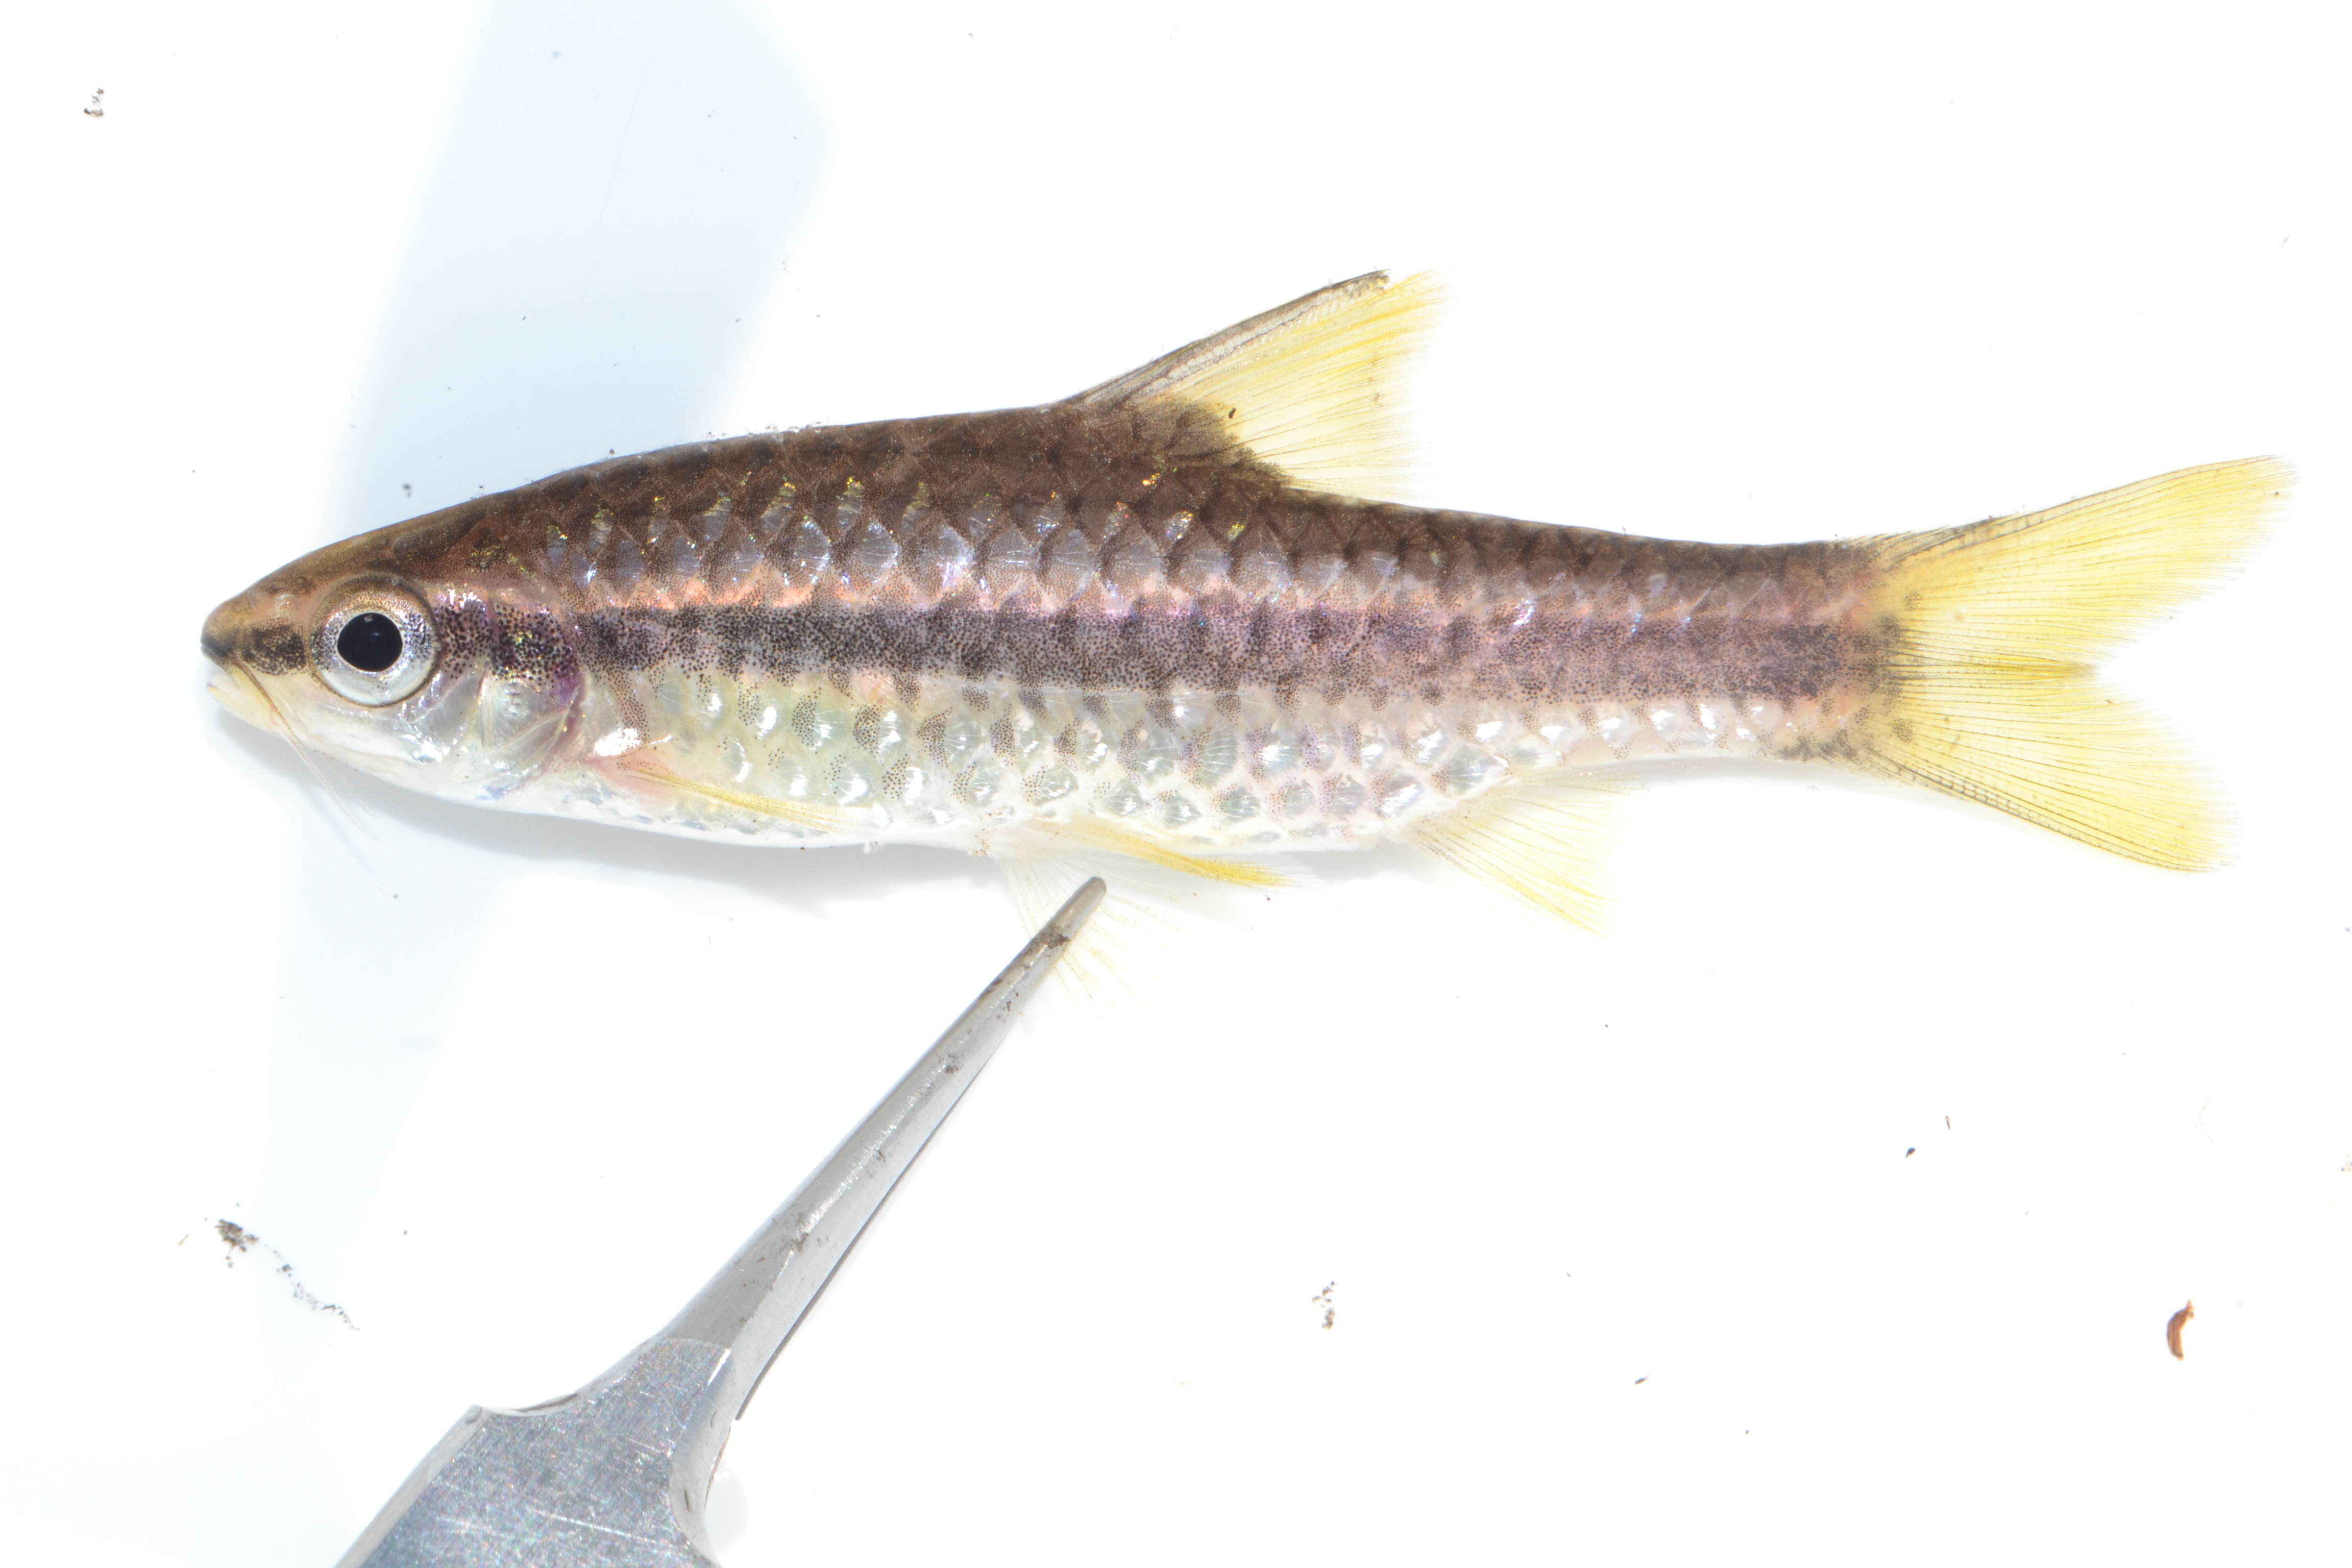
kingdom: Animalia
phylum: Chordata
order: Cypriniformes
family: Cyprinidae
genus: Enteromius
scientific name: Enteromius eutaenia
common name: Orangefin barb
